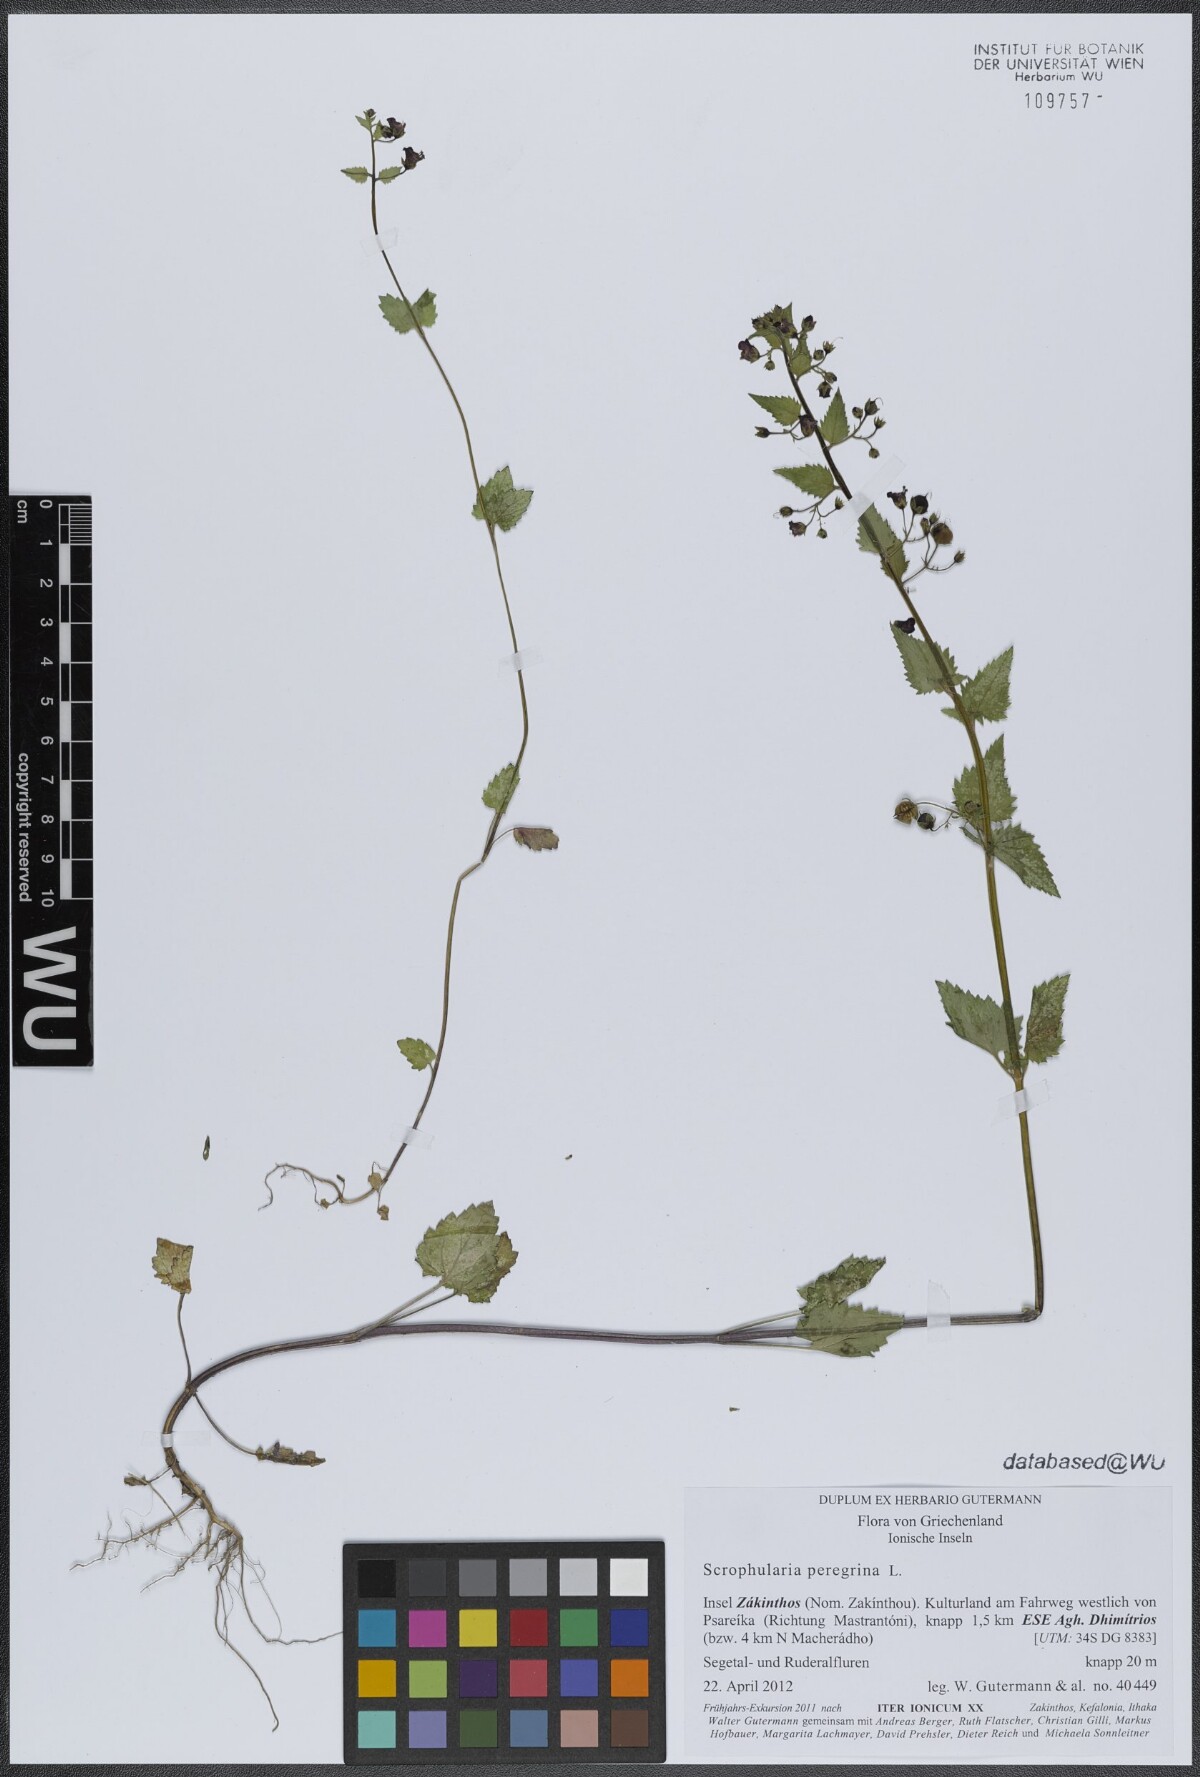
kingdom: Plantae
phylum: Tracheophyta
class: Magnoliopsida
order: Lamiales
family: Scrophulariaceae
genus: Scrophularia
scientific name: Scrophularia peregrina
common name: Mediterranean figwort
